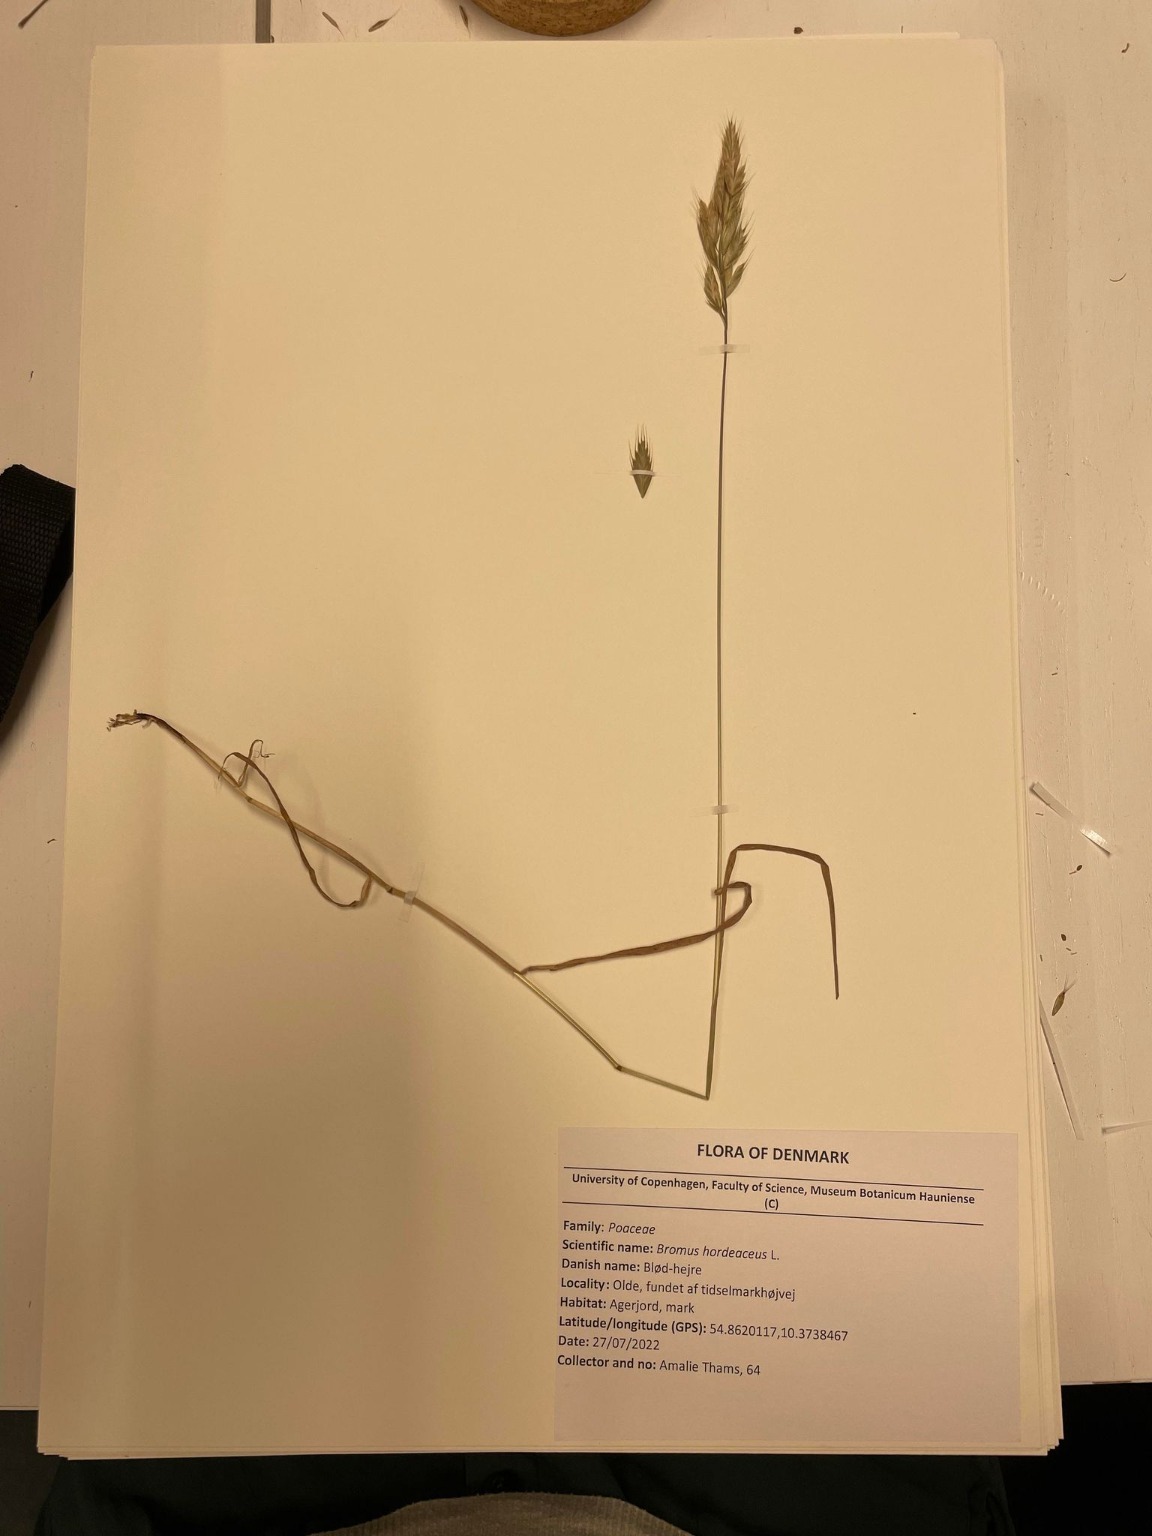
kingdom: Plantae
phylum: Tracheophyta
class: Liliopsida
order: Poales
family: Poaceae
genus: Bromus
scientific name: Bromus hordeaceus
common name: Blød hejre
